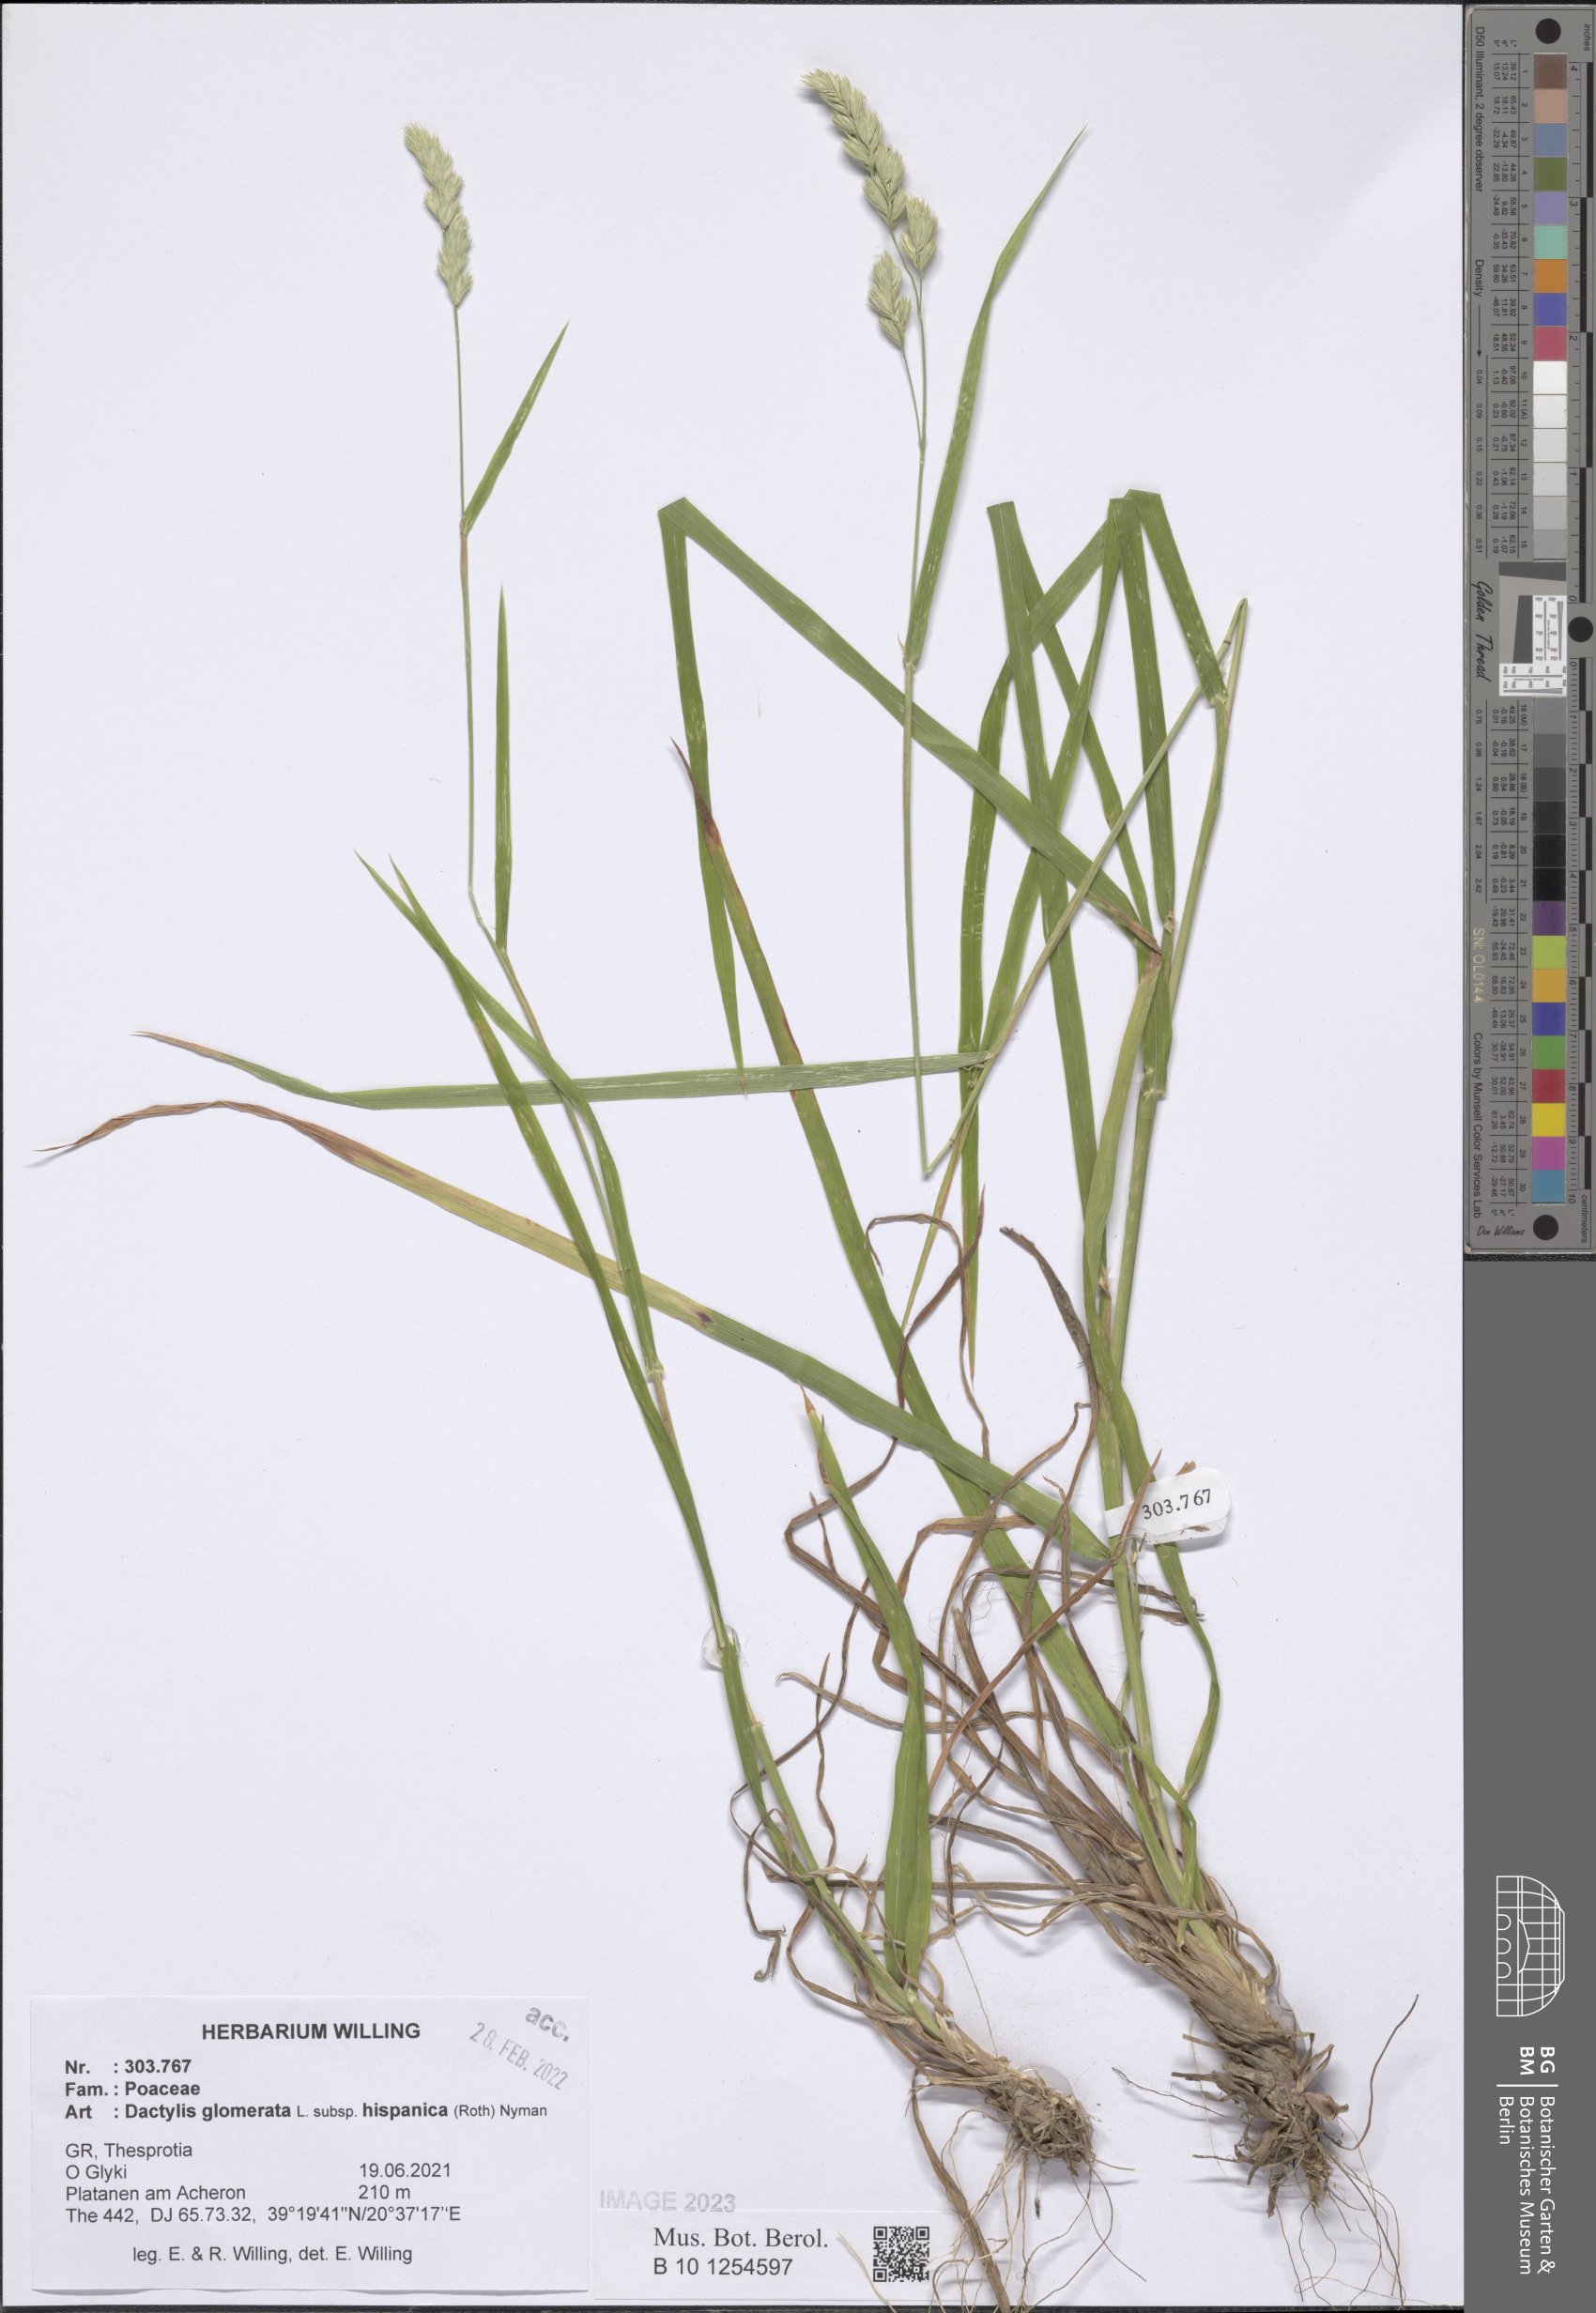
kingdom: Plantae
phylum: Tracheophyta
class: Liliopsida
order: Poales
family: Poaceae
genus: Dactylis
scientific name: Dactylis glomerata
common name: Orchardgrass
